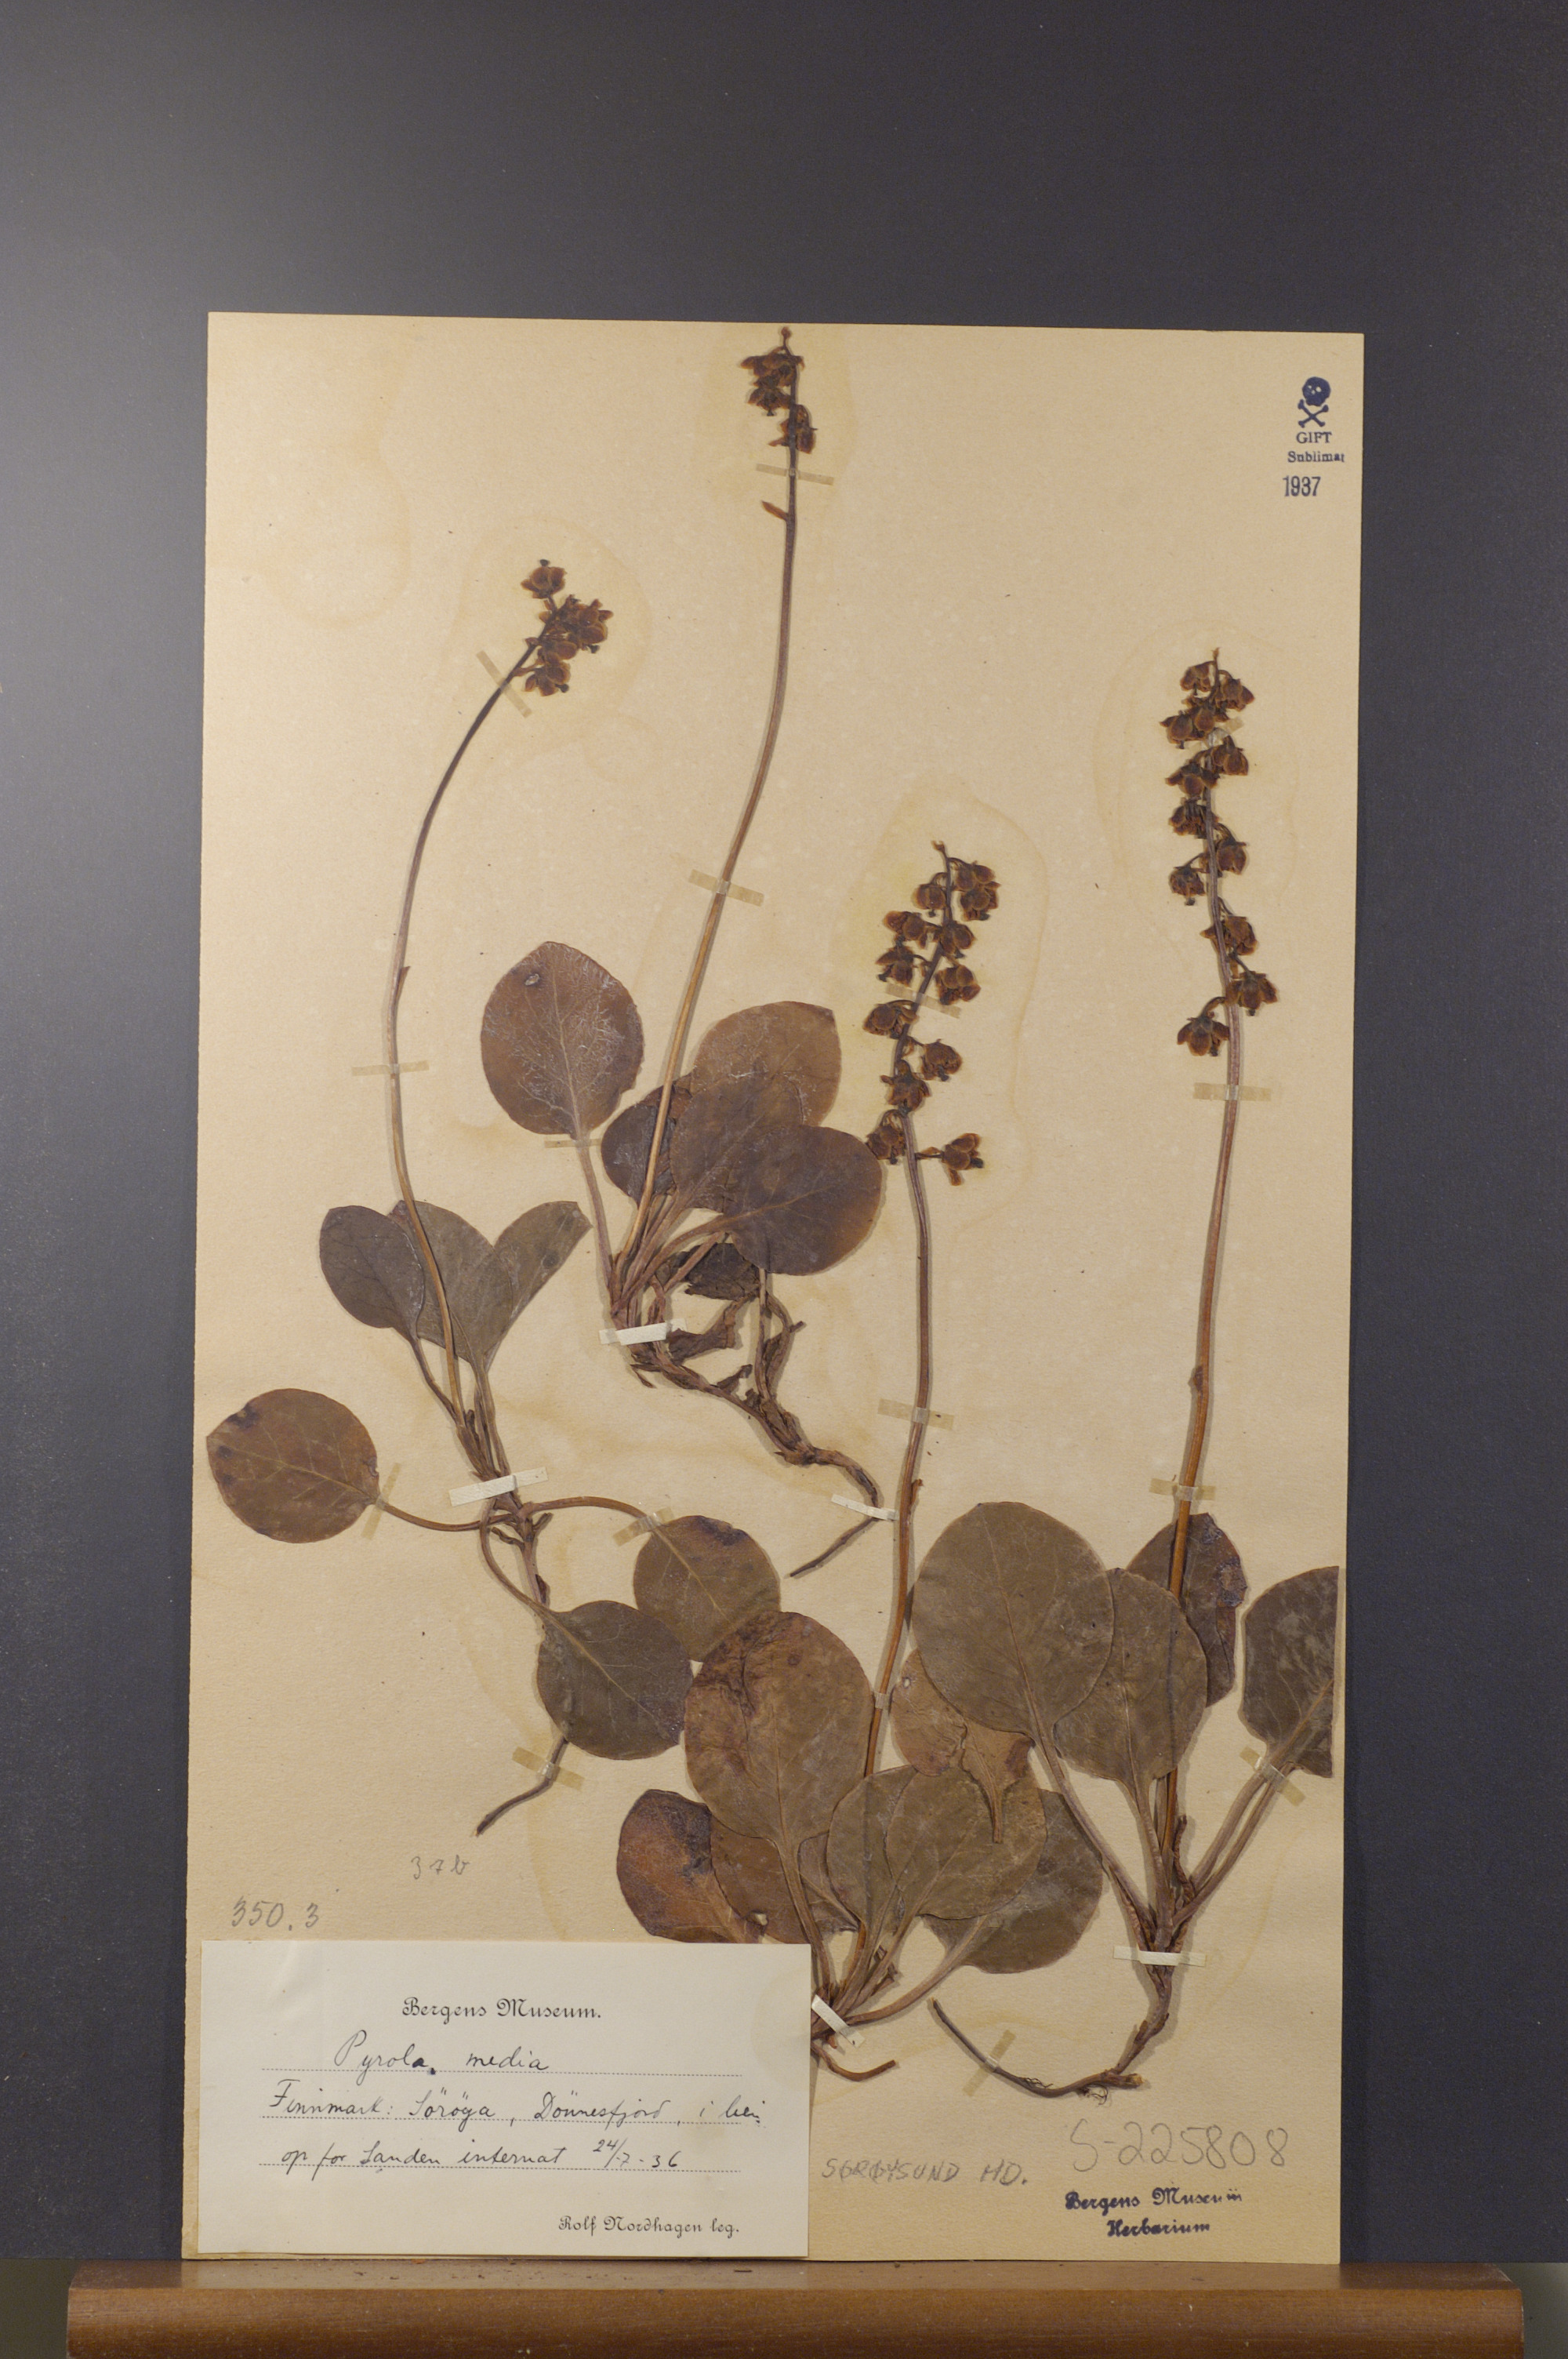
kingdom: Plantae
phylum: Tracheophyta
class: Magnoliopsida
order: Ericales
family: Ericaceae
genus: Pyrola
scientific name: Pyrola media
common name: Intermediate wintergreen
